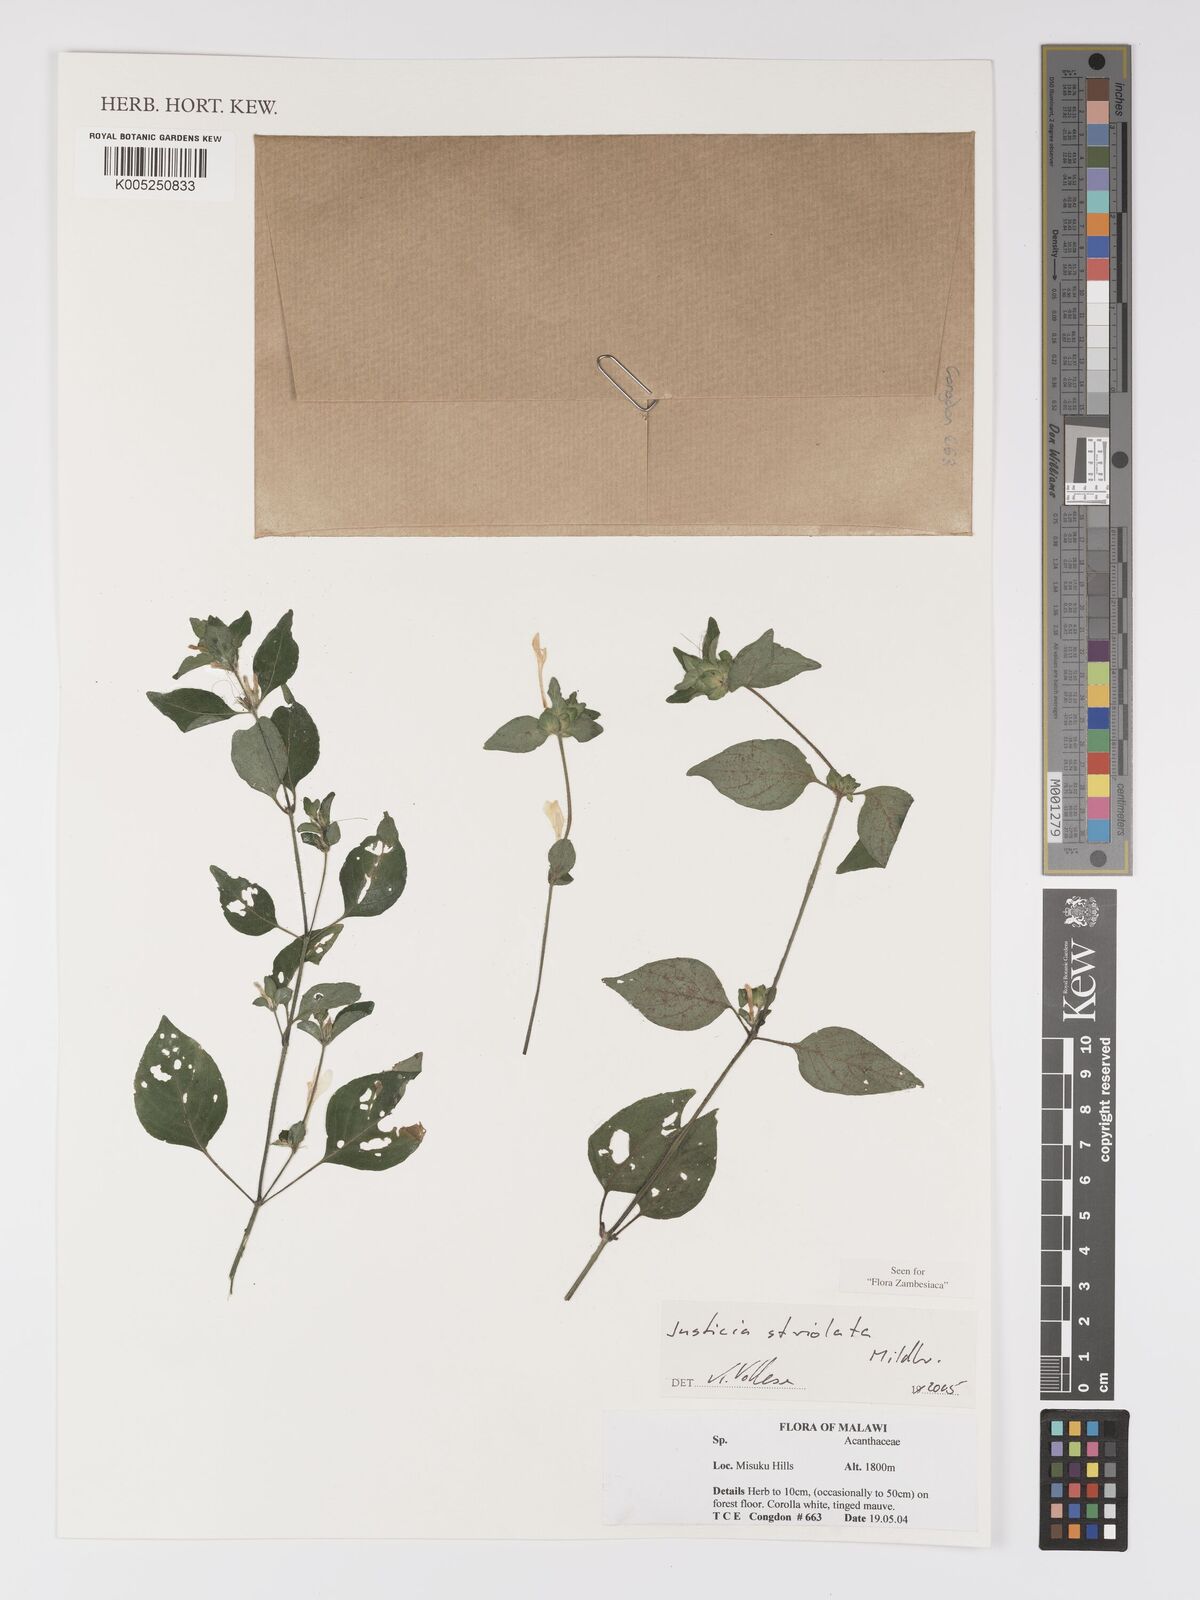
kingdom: Plantae
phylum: Tracheophyta
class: Magnoliopsida
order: Lamiales
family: Acanthaceae
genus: Justicia
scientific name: Justicia striolata
